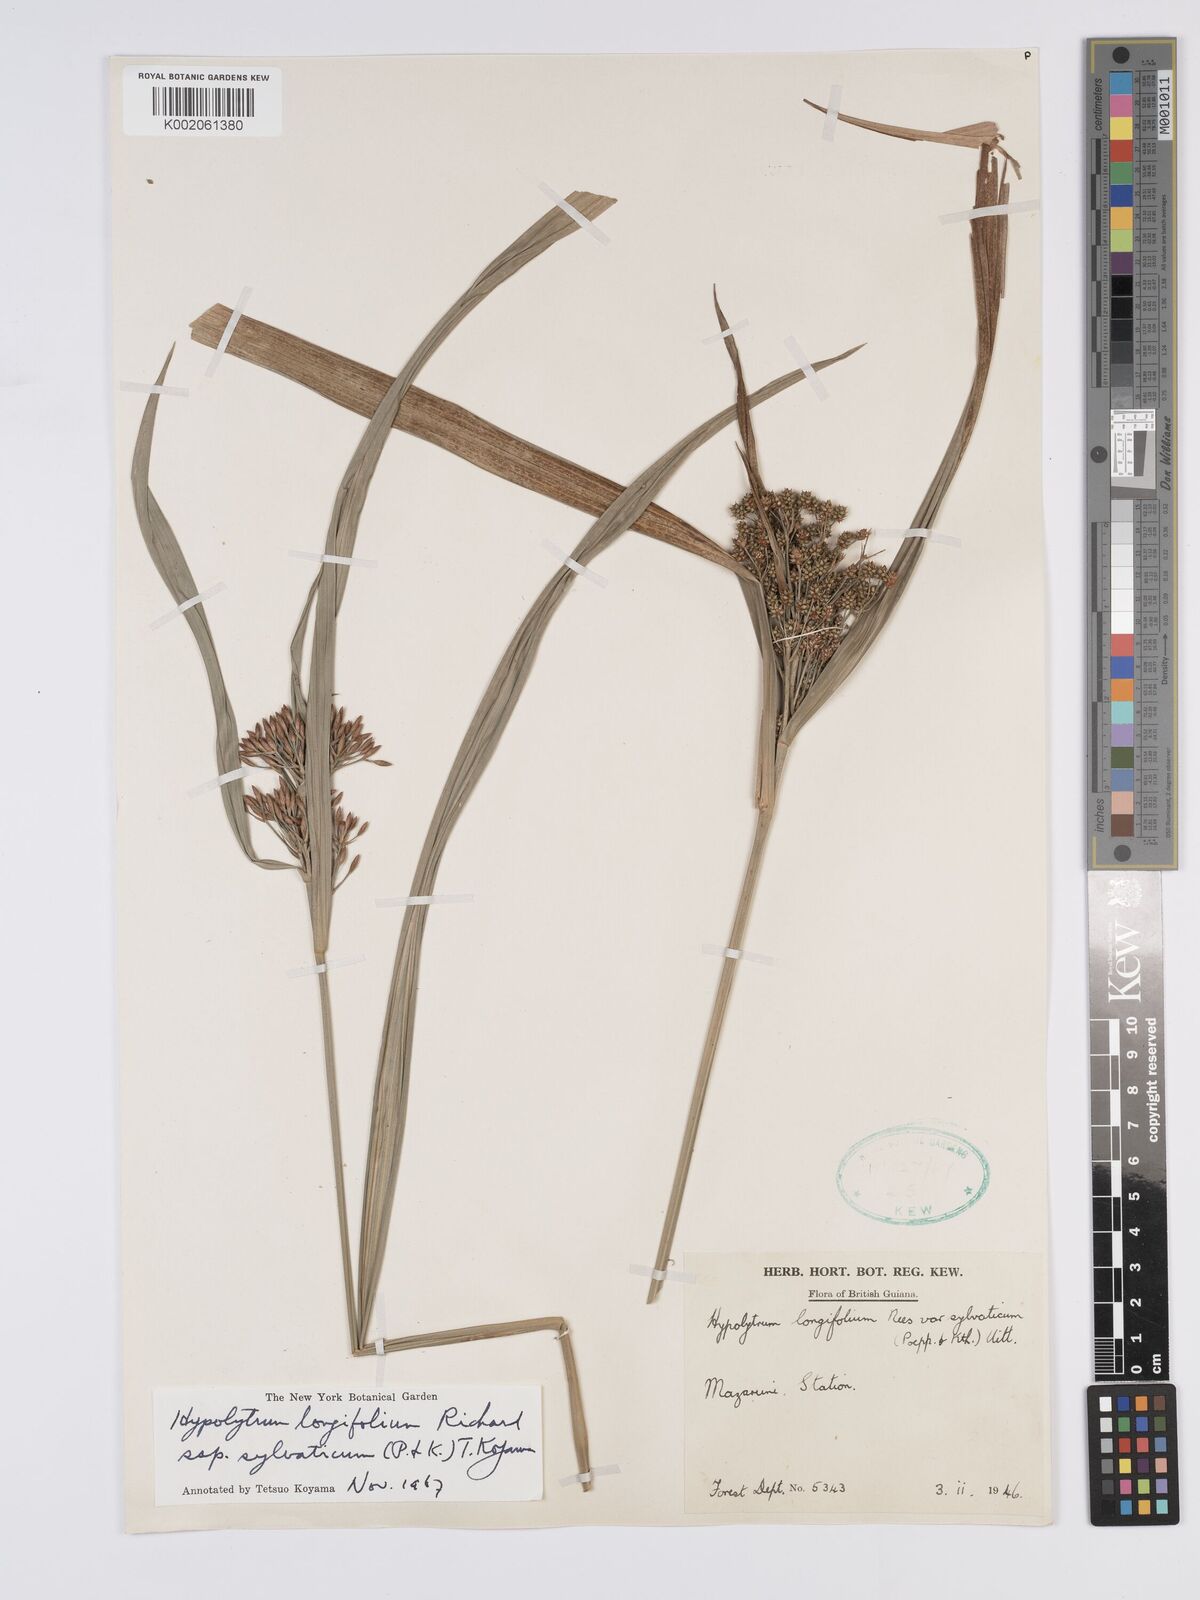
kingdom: Plantae
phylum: Tracheophyta
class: Liliopsida
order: Poales
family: Cyperaceae
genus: Hypolytrum
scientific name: Hypolytrum longifolium
